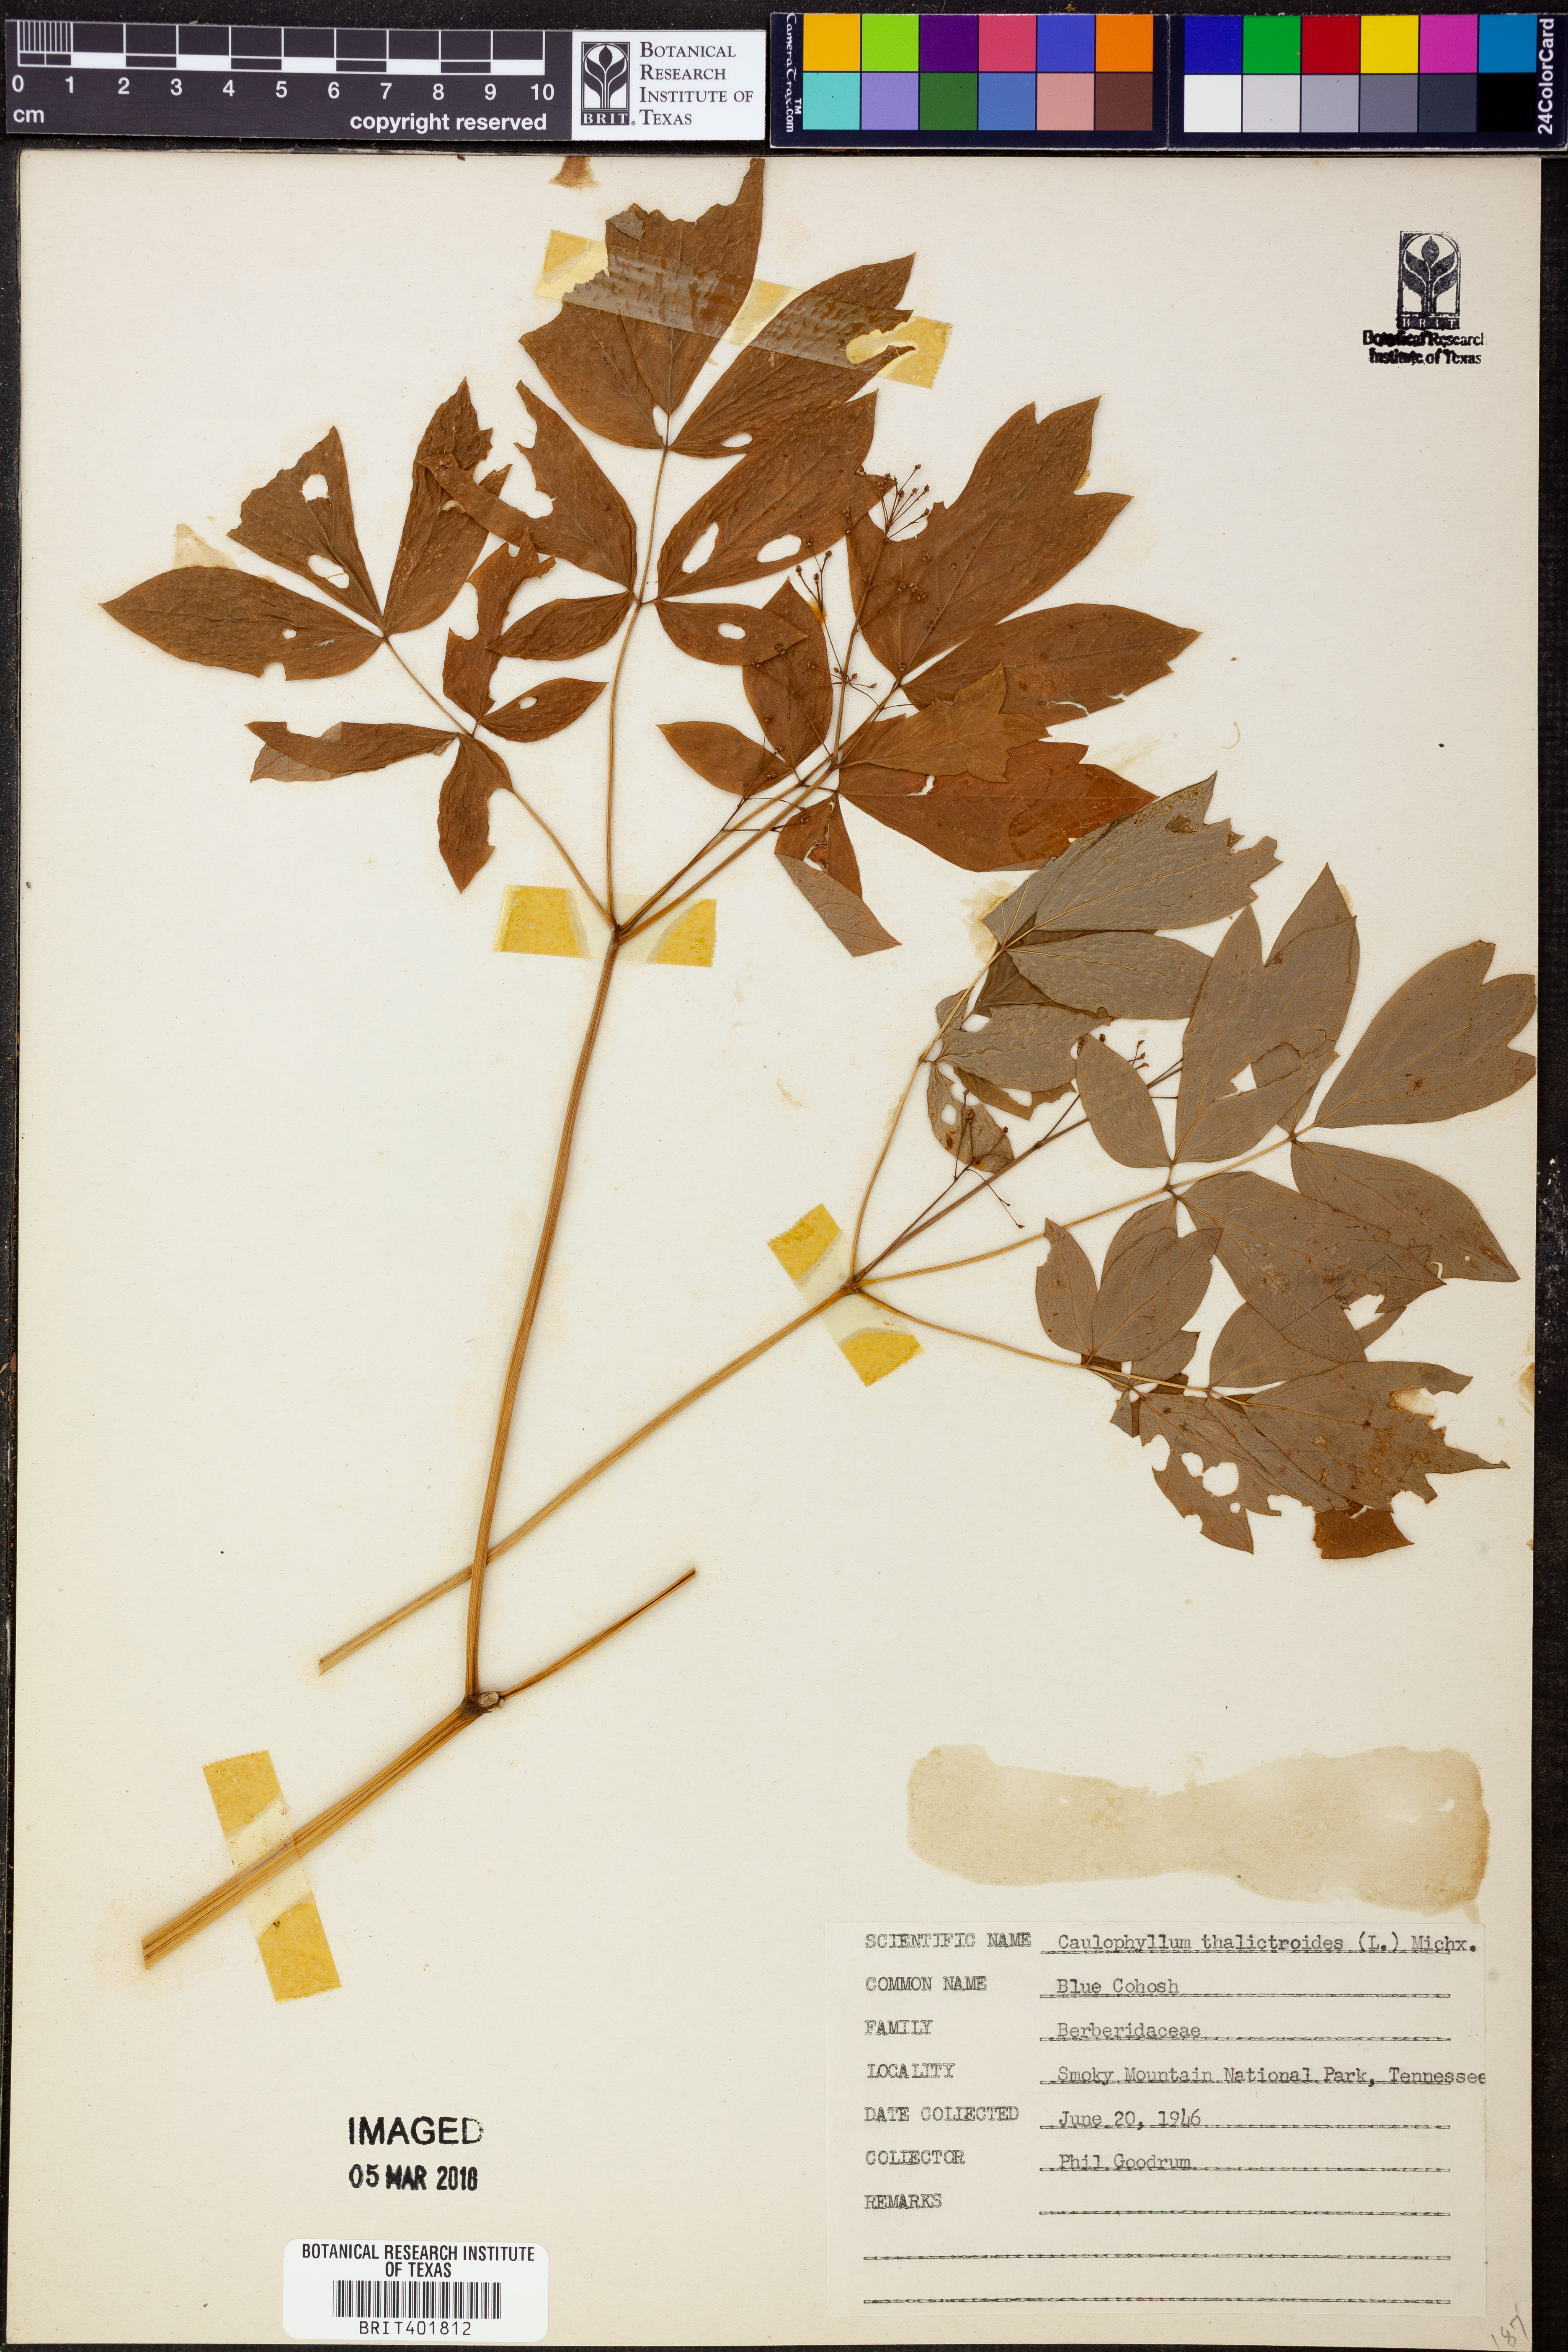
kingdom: Plantae
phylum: Tracheophyta
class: Magnoliopsida
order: Ranunculales
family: Berberidaceae
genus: Caulophyllum
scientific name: Caulophyllum thalictroides
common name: Blue cohosh
